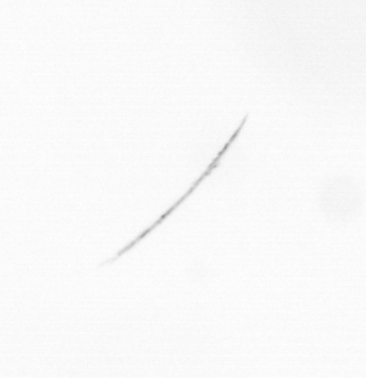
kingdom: Chromista
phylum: Ochrophyta
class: Bacillariophyceae
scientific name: Bacillariophyceae
